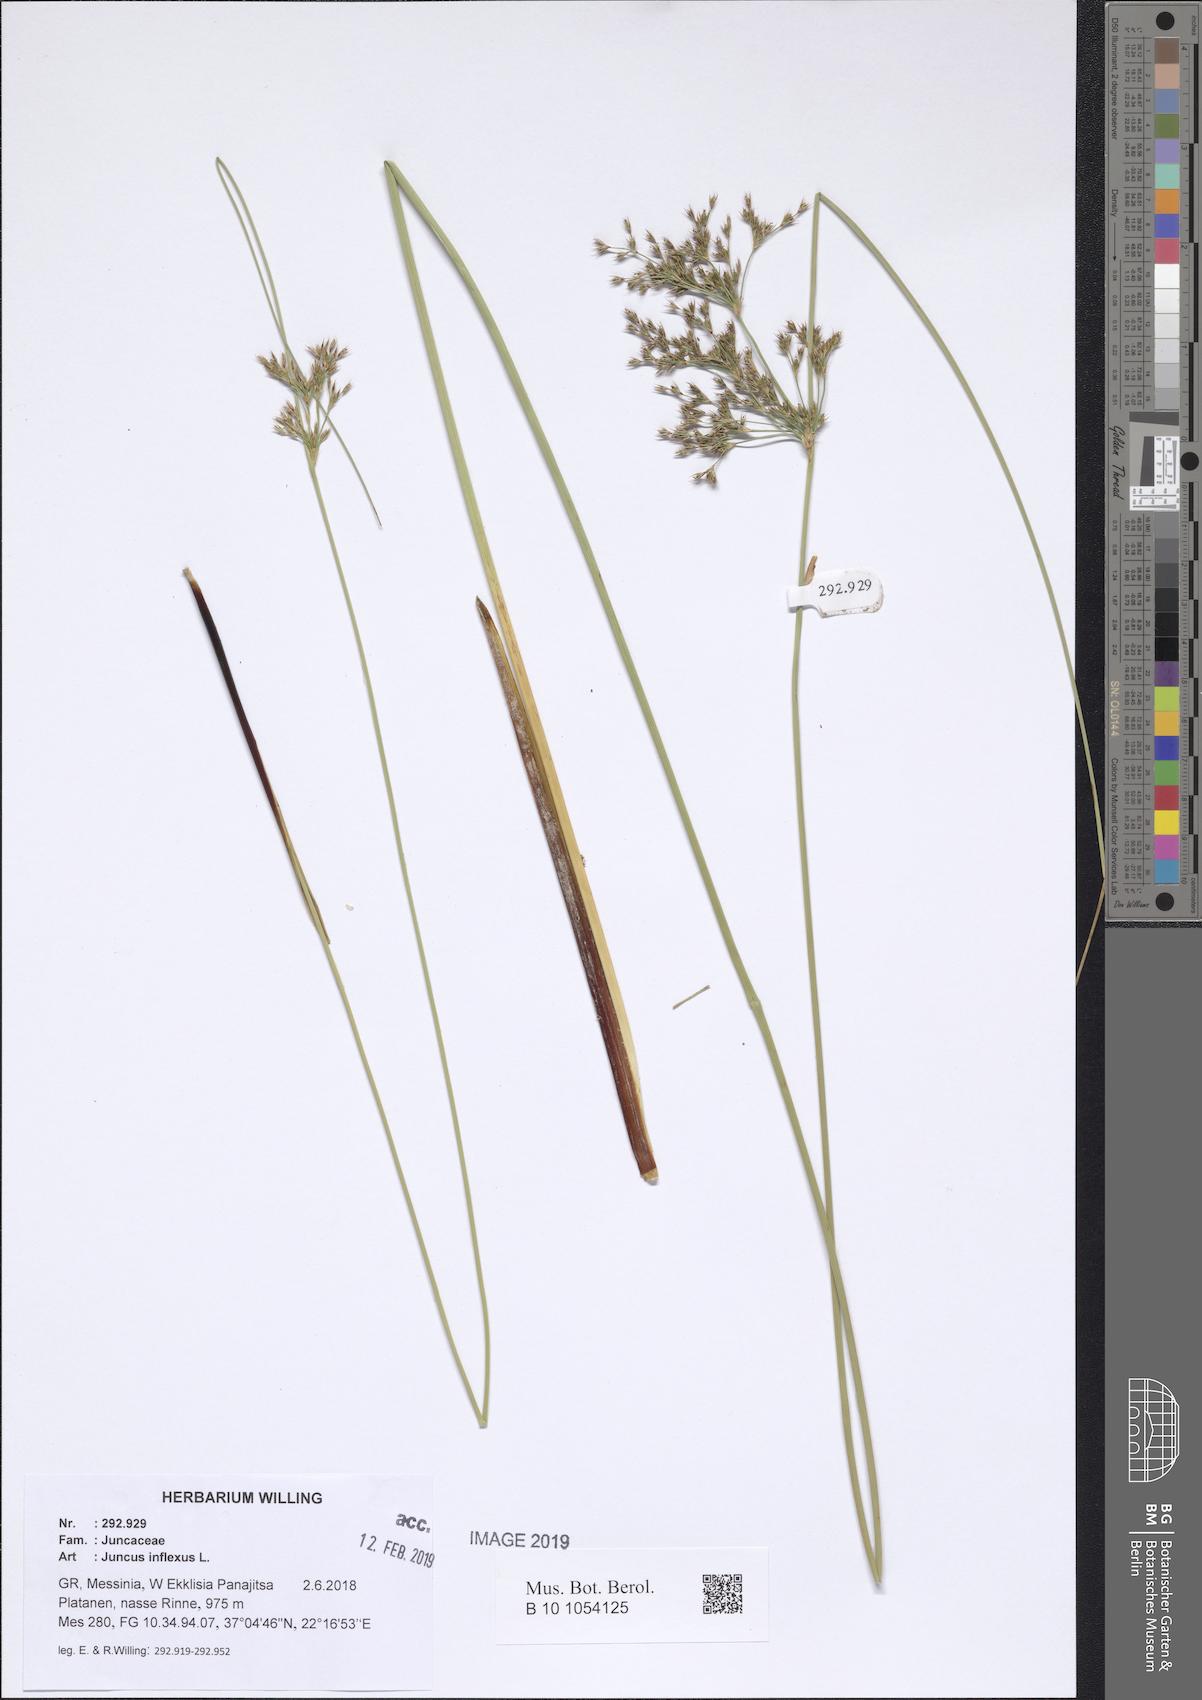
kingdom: Plantae
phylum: Tracheophyta
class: Liliopsida
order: Poales
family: Juncaceae
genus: Juncus
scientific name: Juncus inflexus
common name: Hard rush
